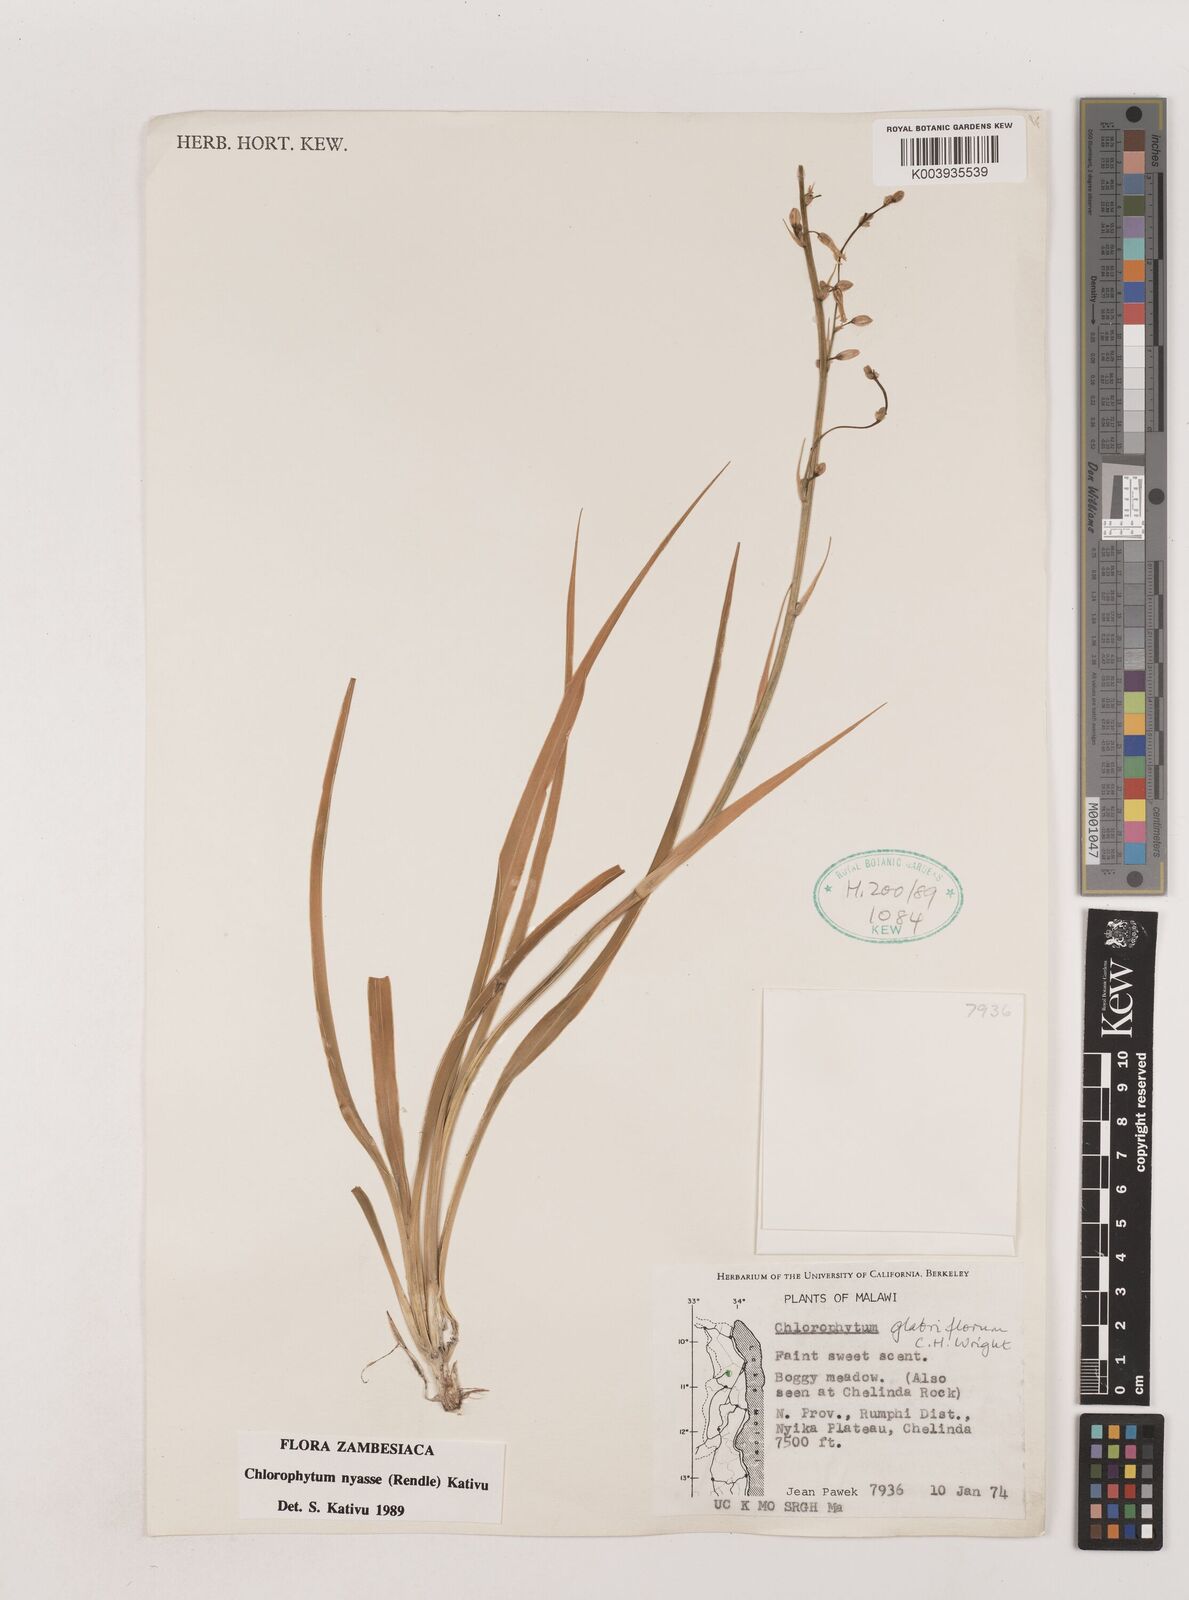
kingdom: Plantae
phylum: Tracheophyta
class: Liliopsida
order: Asparagales
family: Asparagaceae
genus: Chlorophytum
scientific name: Chlorophytum nyasae
